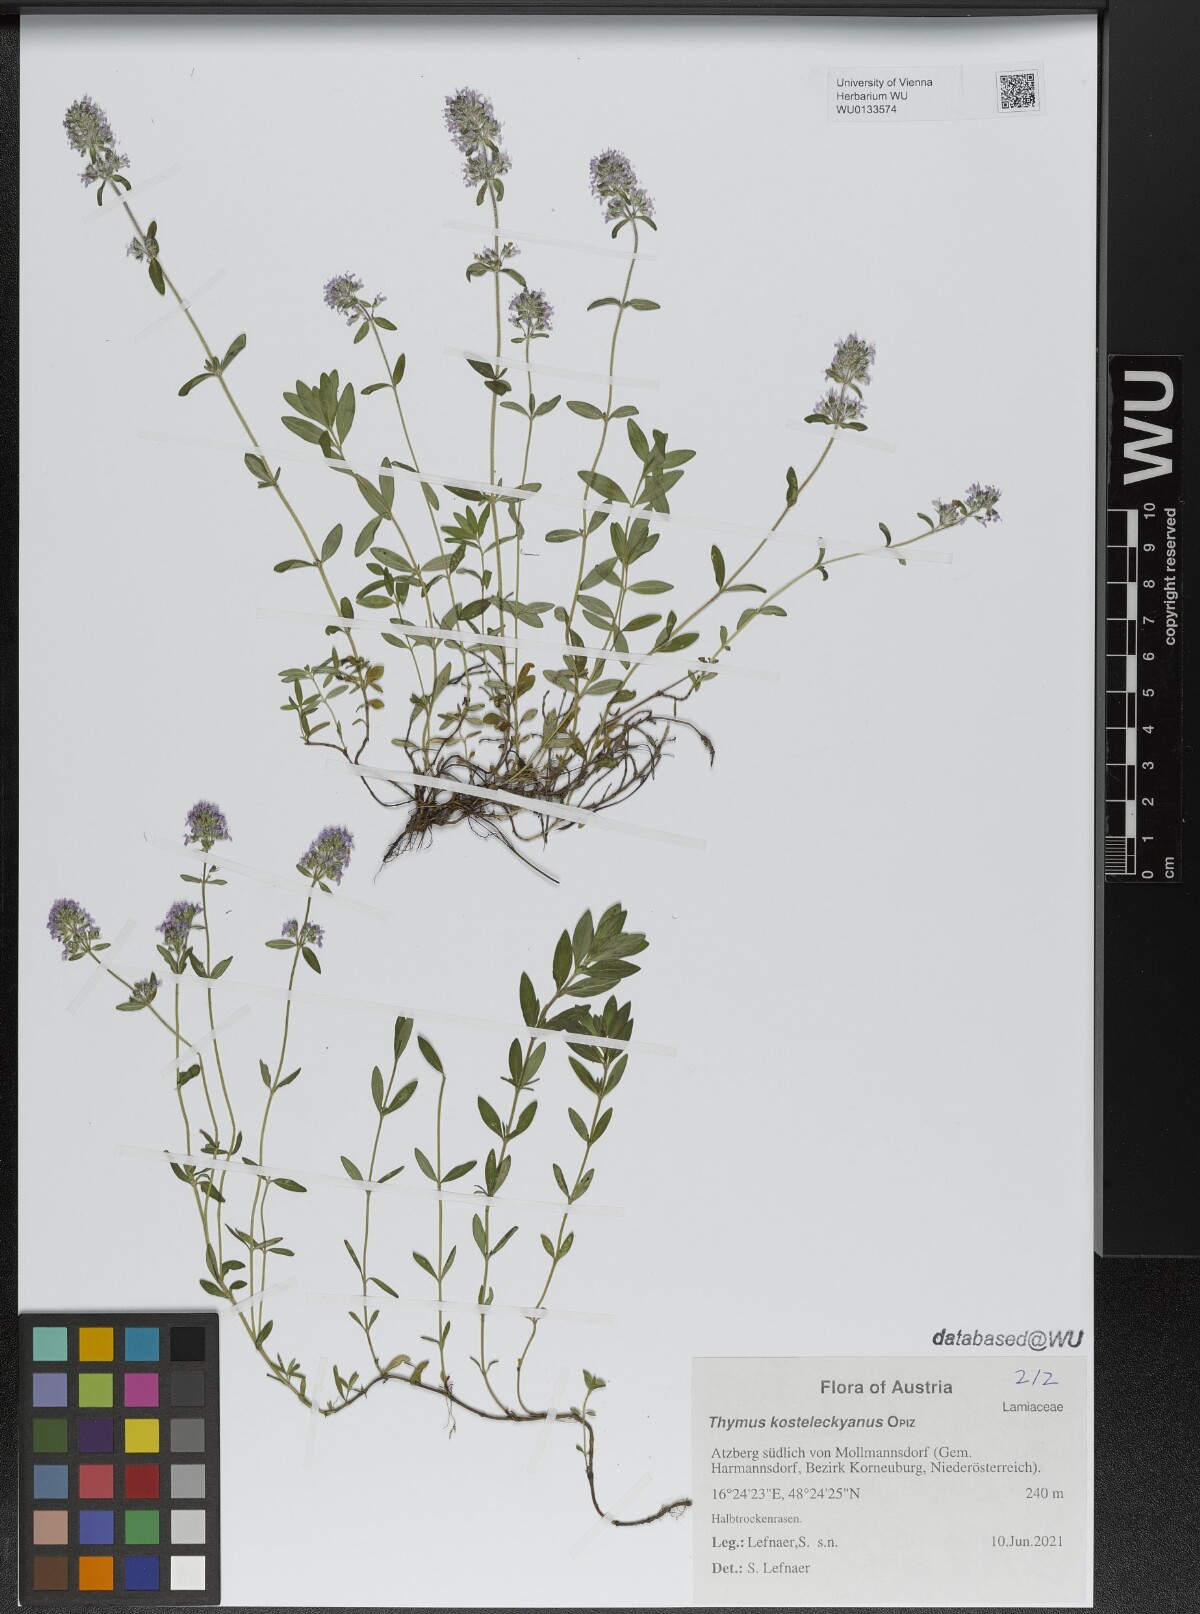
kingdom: Plantae
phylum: Tracheophyta
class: Magnoliopsida
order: Lamiales
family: Lamiaceae
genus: Thymus
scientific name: Thymus kosteleckyanus
